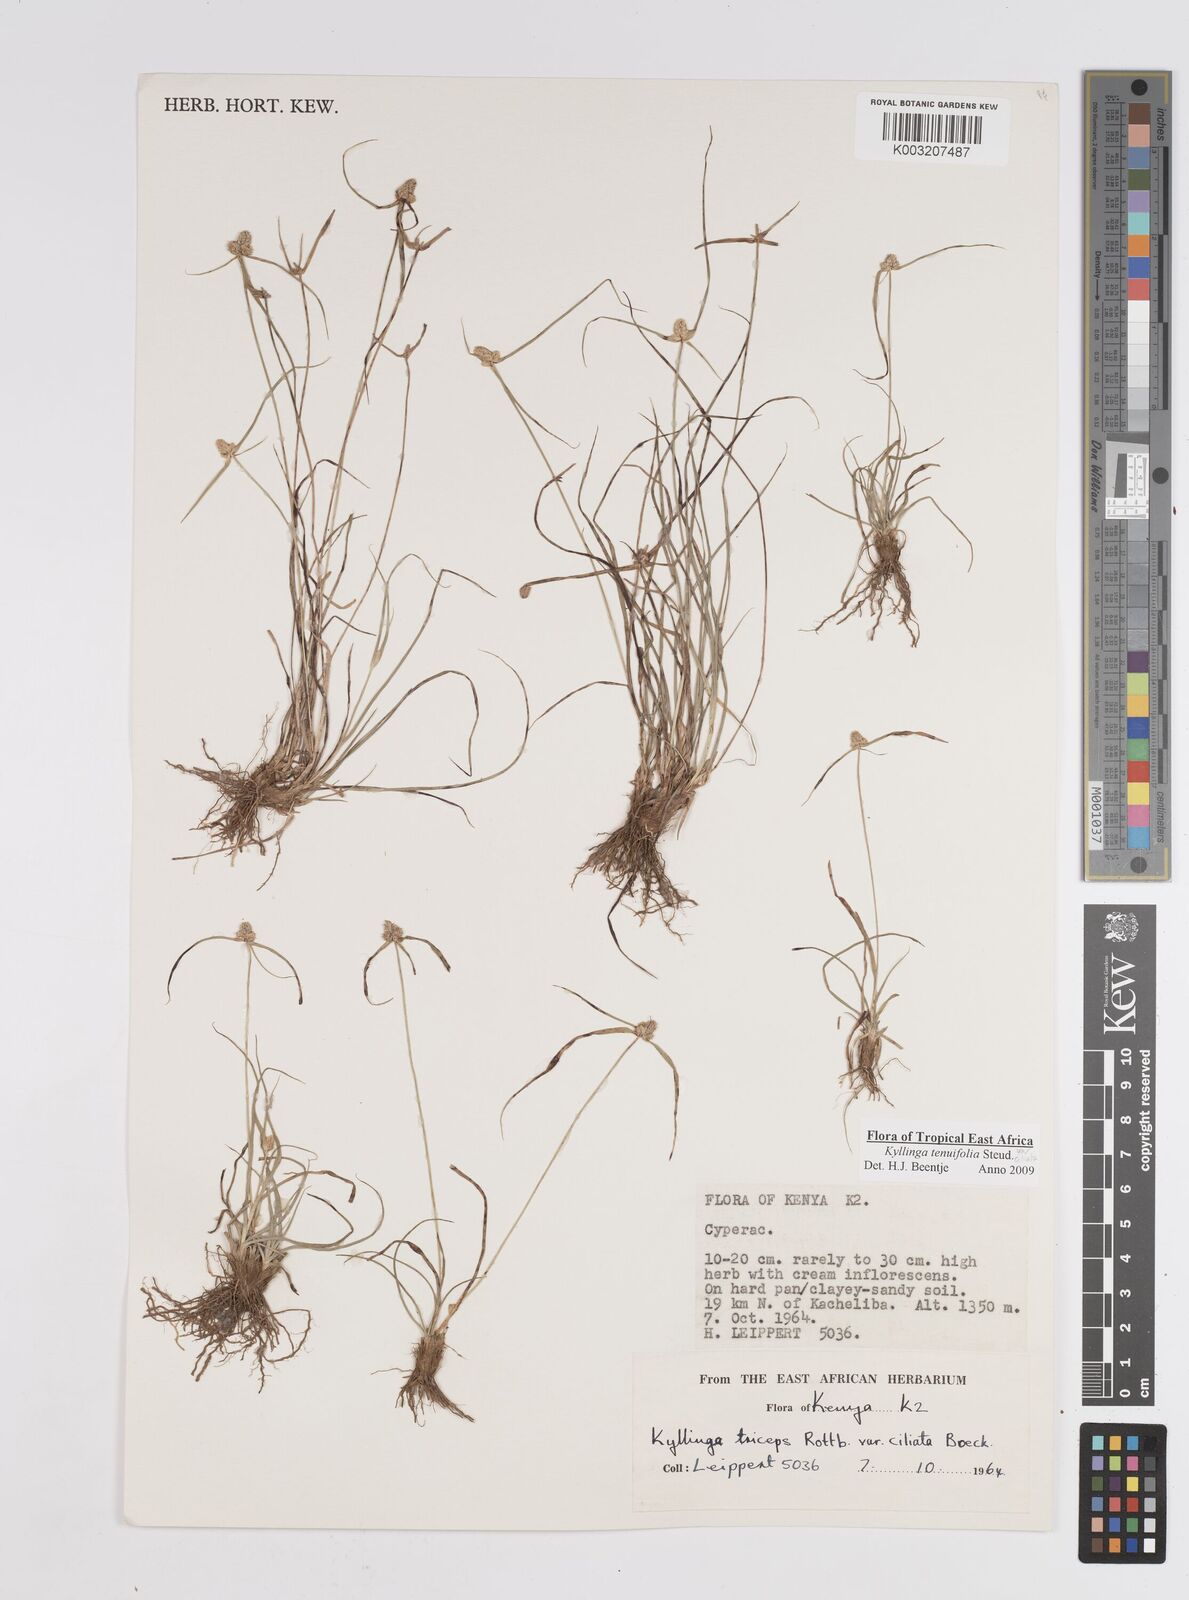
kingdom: Plantae
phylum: Tracheophyta
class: Liliopsida
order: Poales
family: Cyperaceae
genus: Cyperus
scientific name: Cyperus
